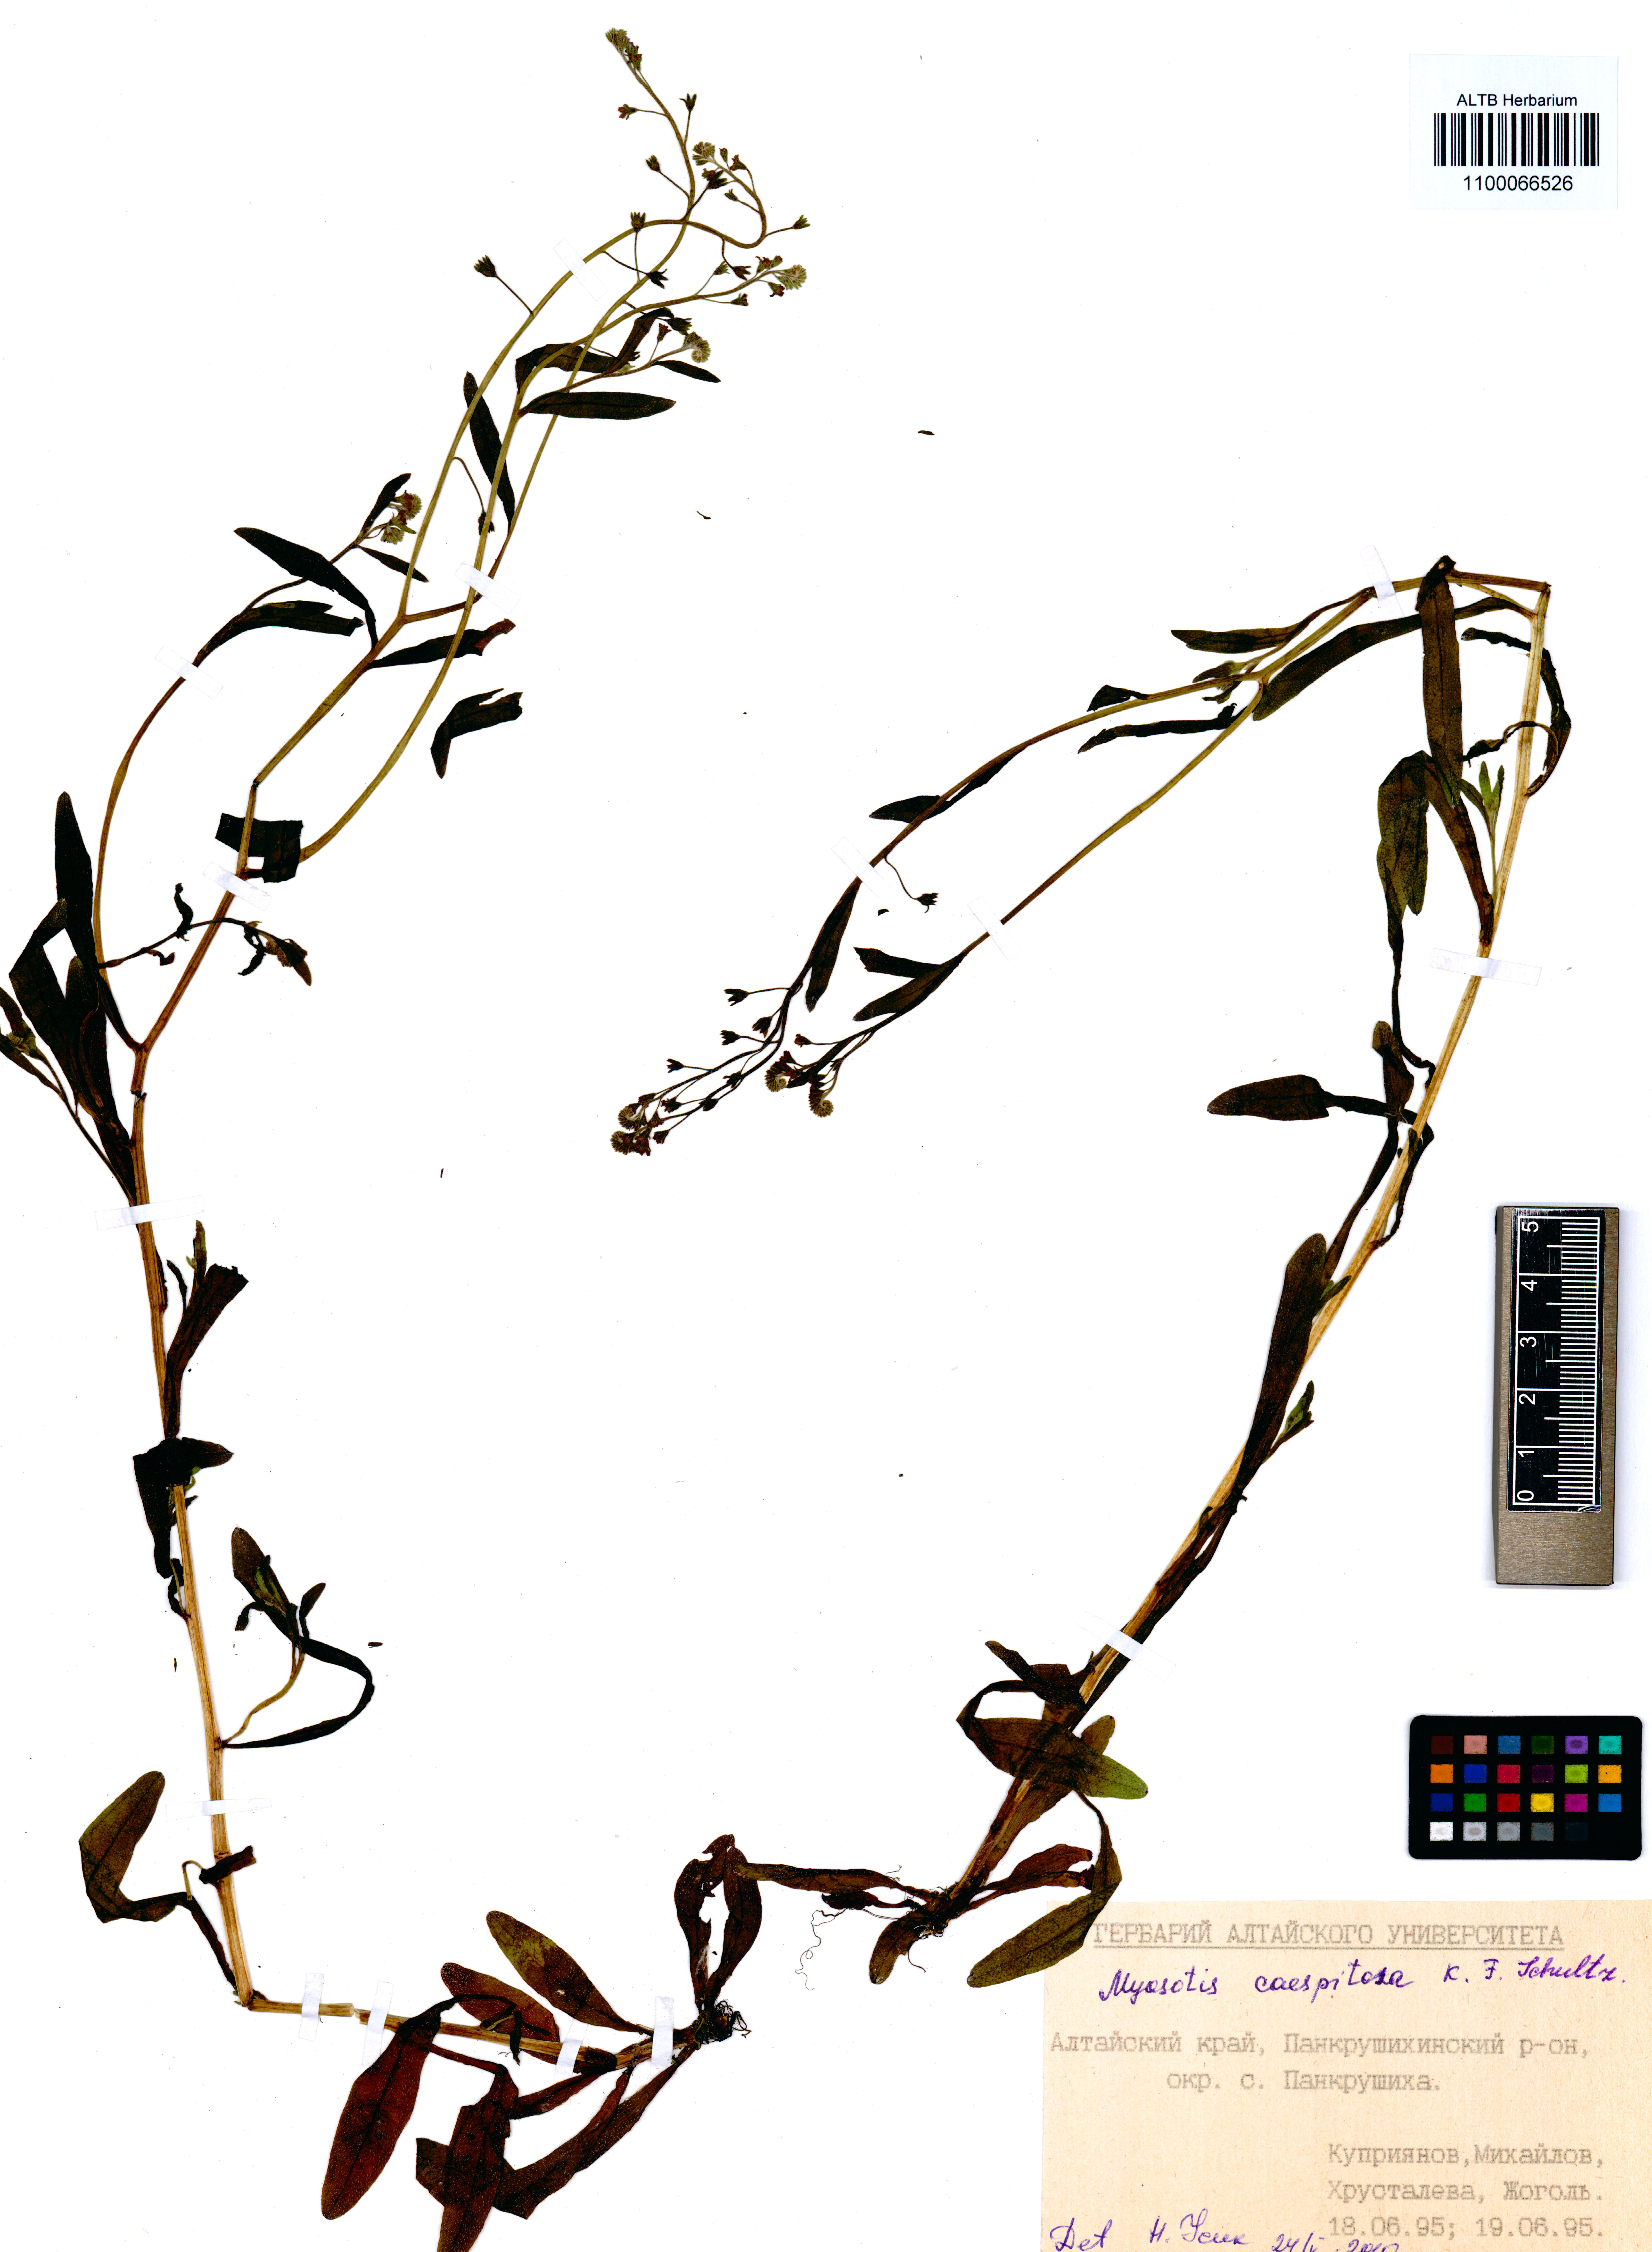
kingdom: Plantae
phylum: Tracheophyta
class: Magnoliopsida
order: Boraginales
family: Boraginaceae
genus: Myosotis
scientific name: Myosotis laxa
